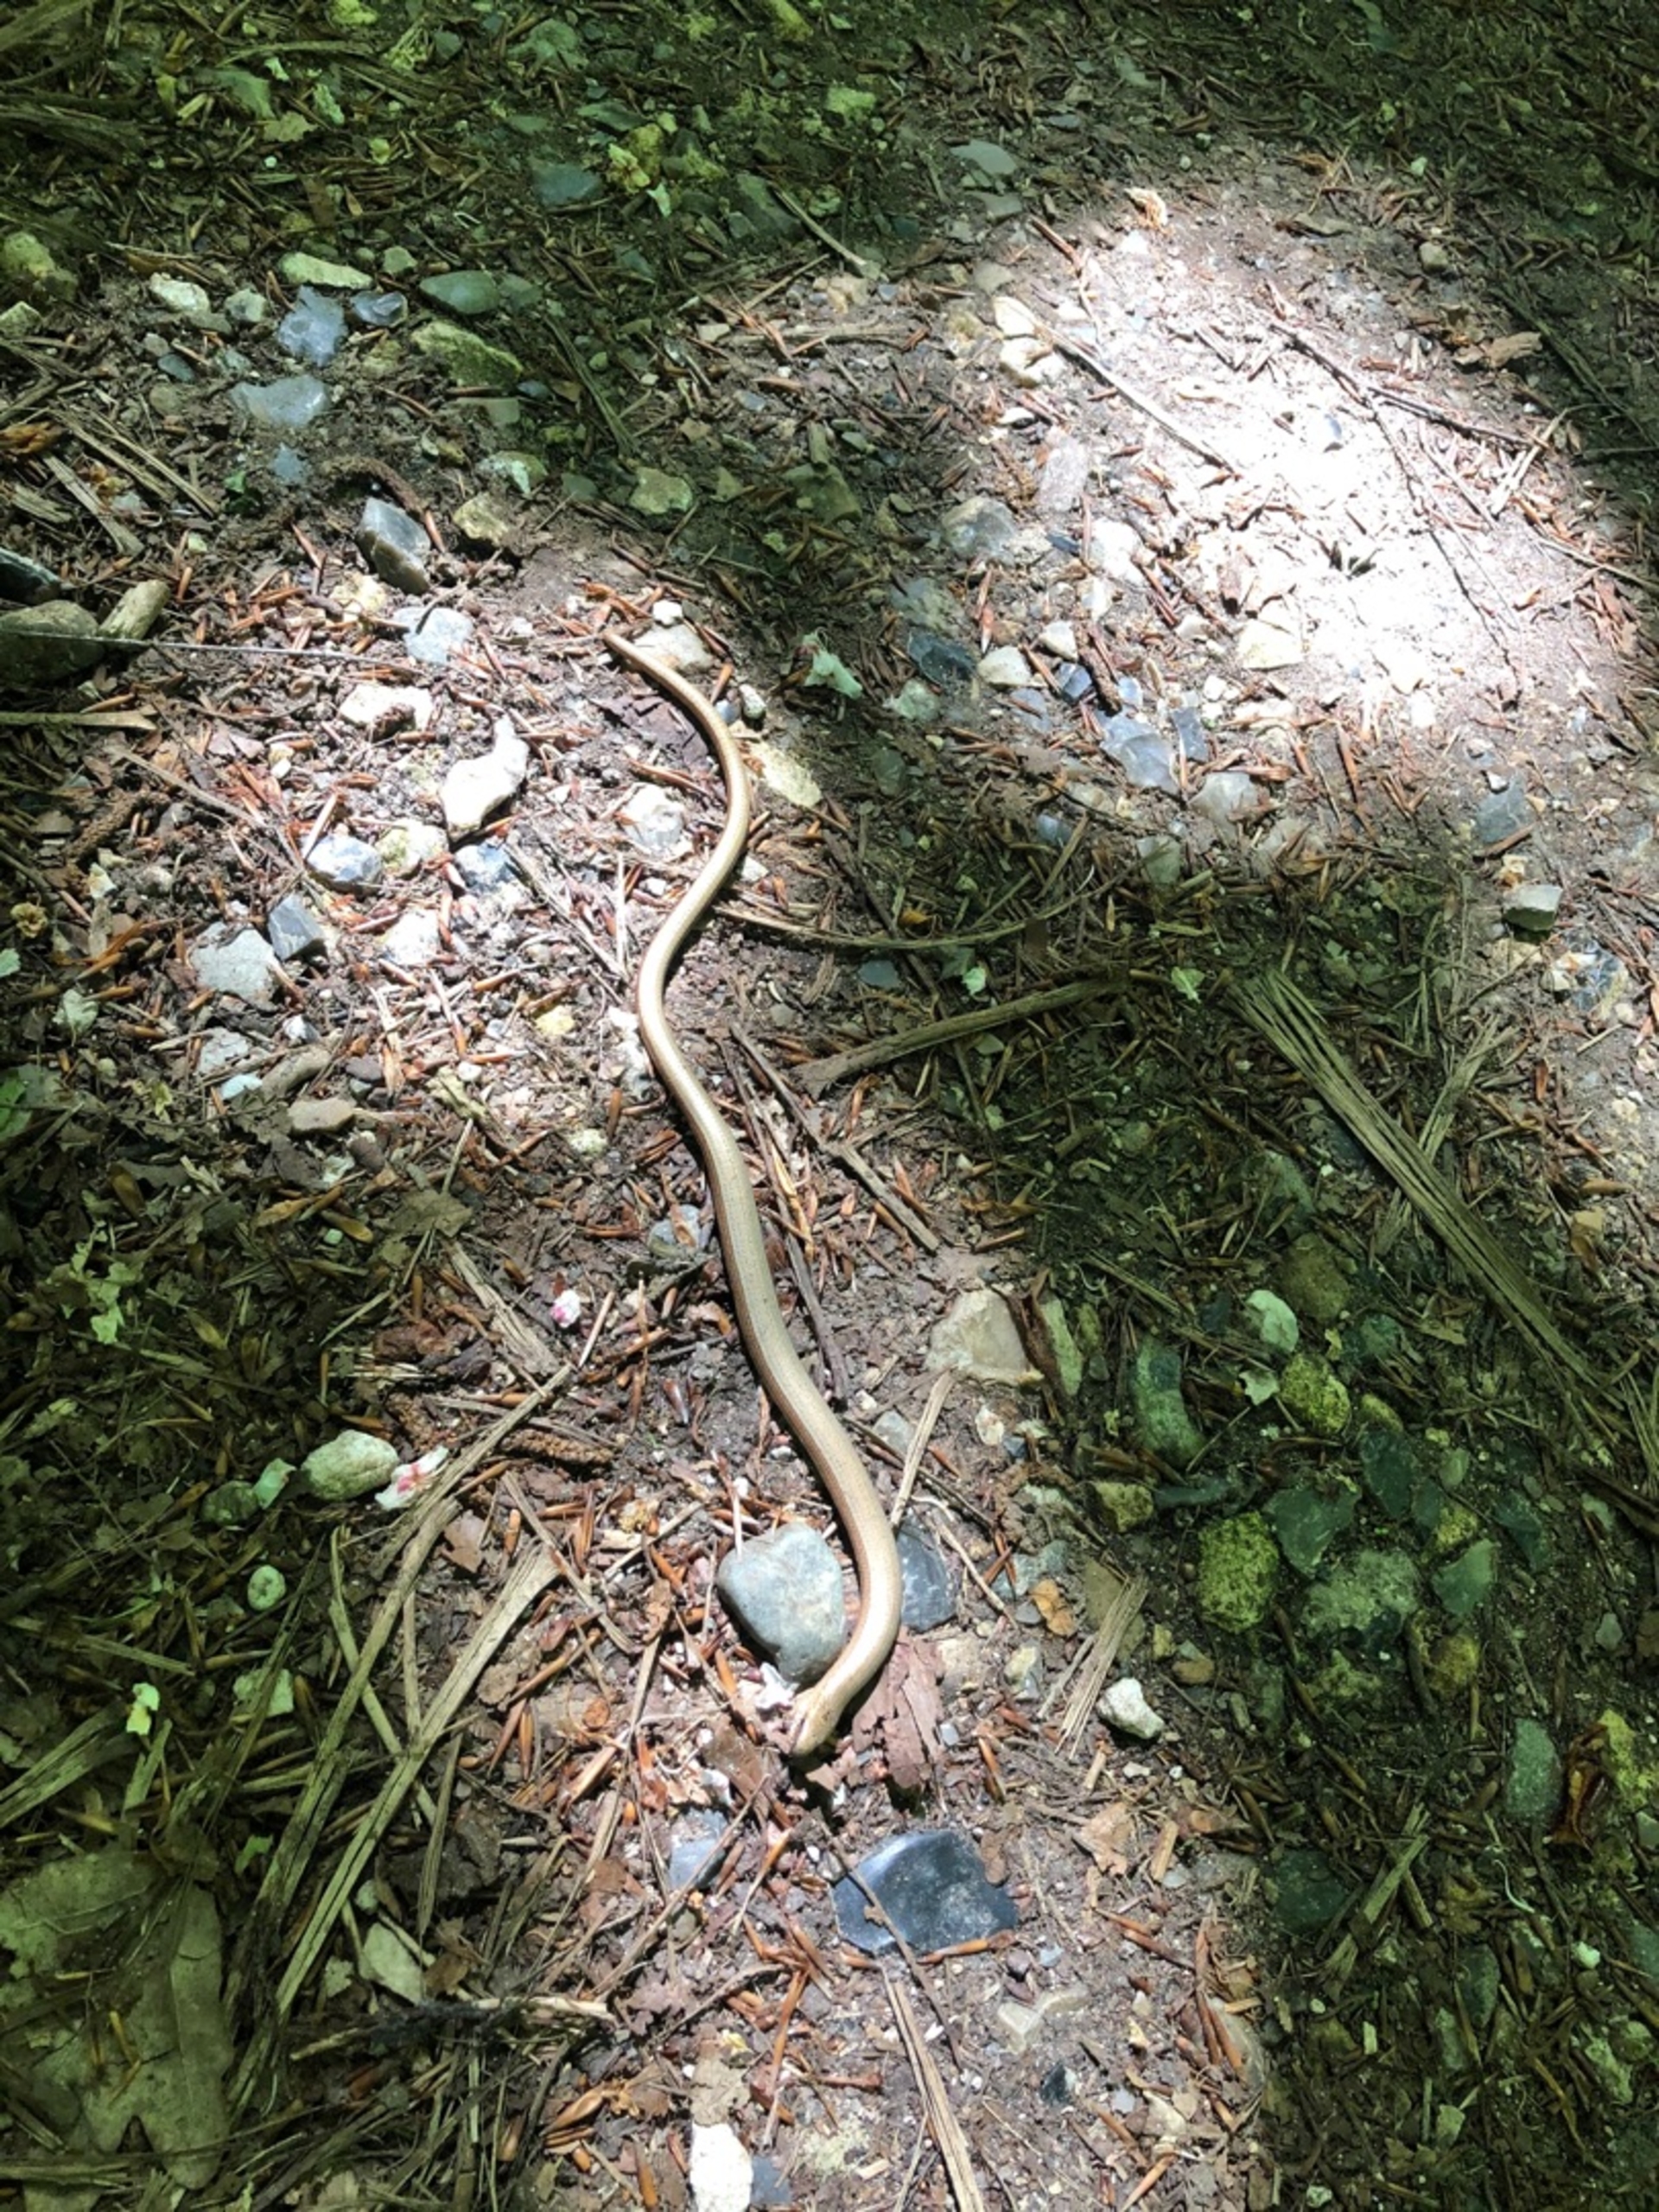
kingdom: Animalia
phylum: Chordata
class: Squamata
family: Anguidae
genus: Anguis
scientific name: Anguis fragilis
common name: Stålorm
